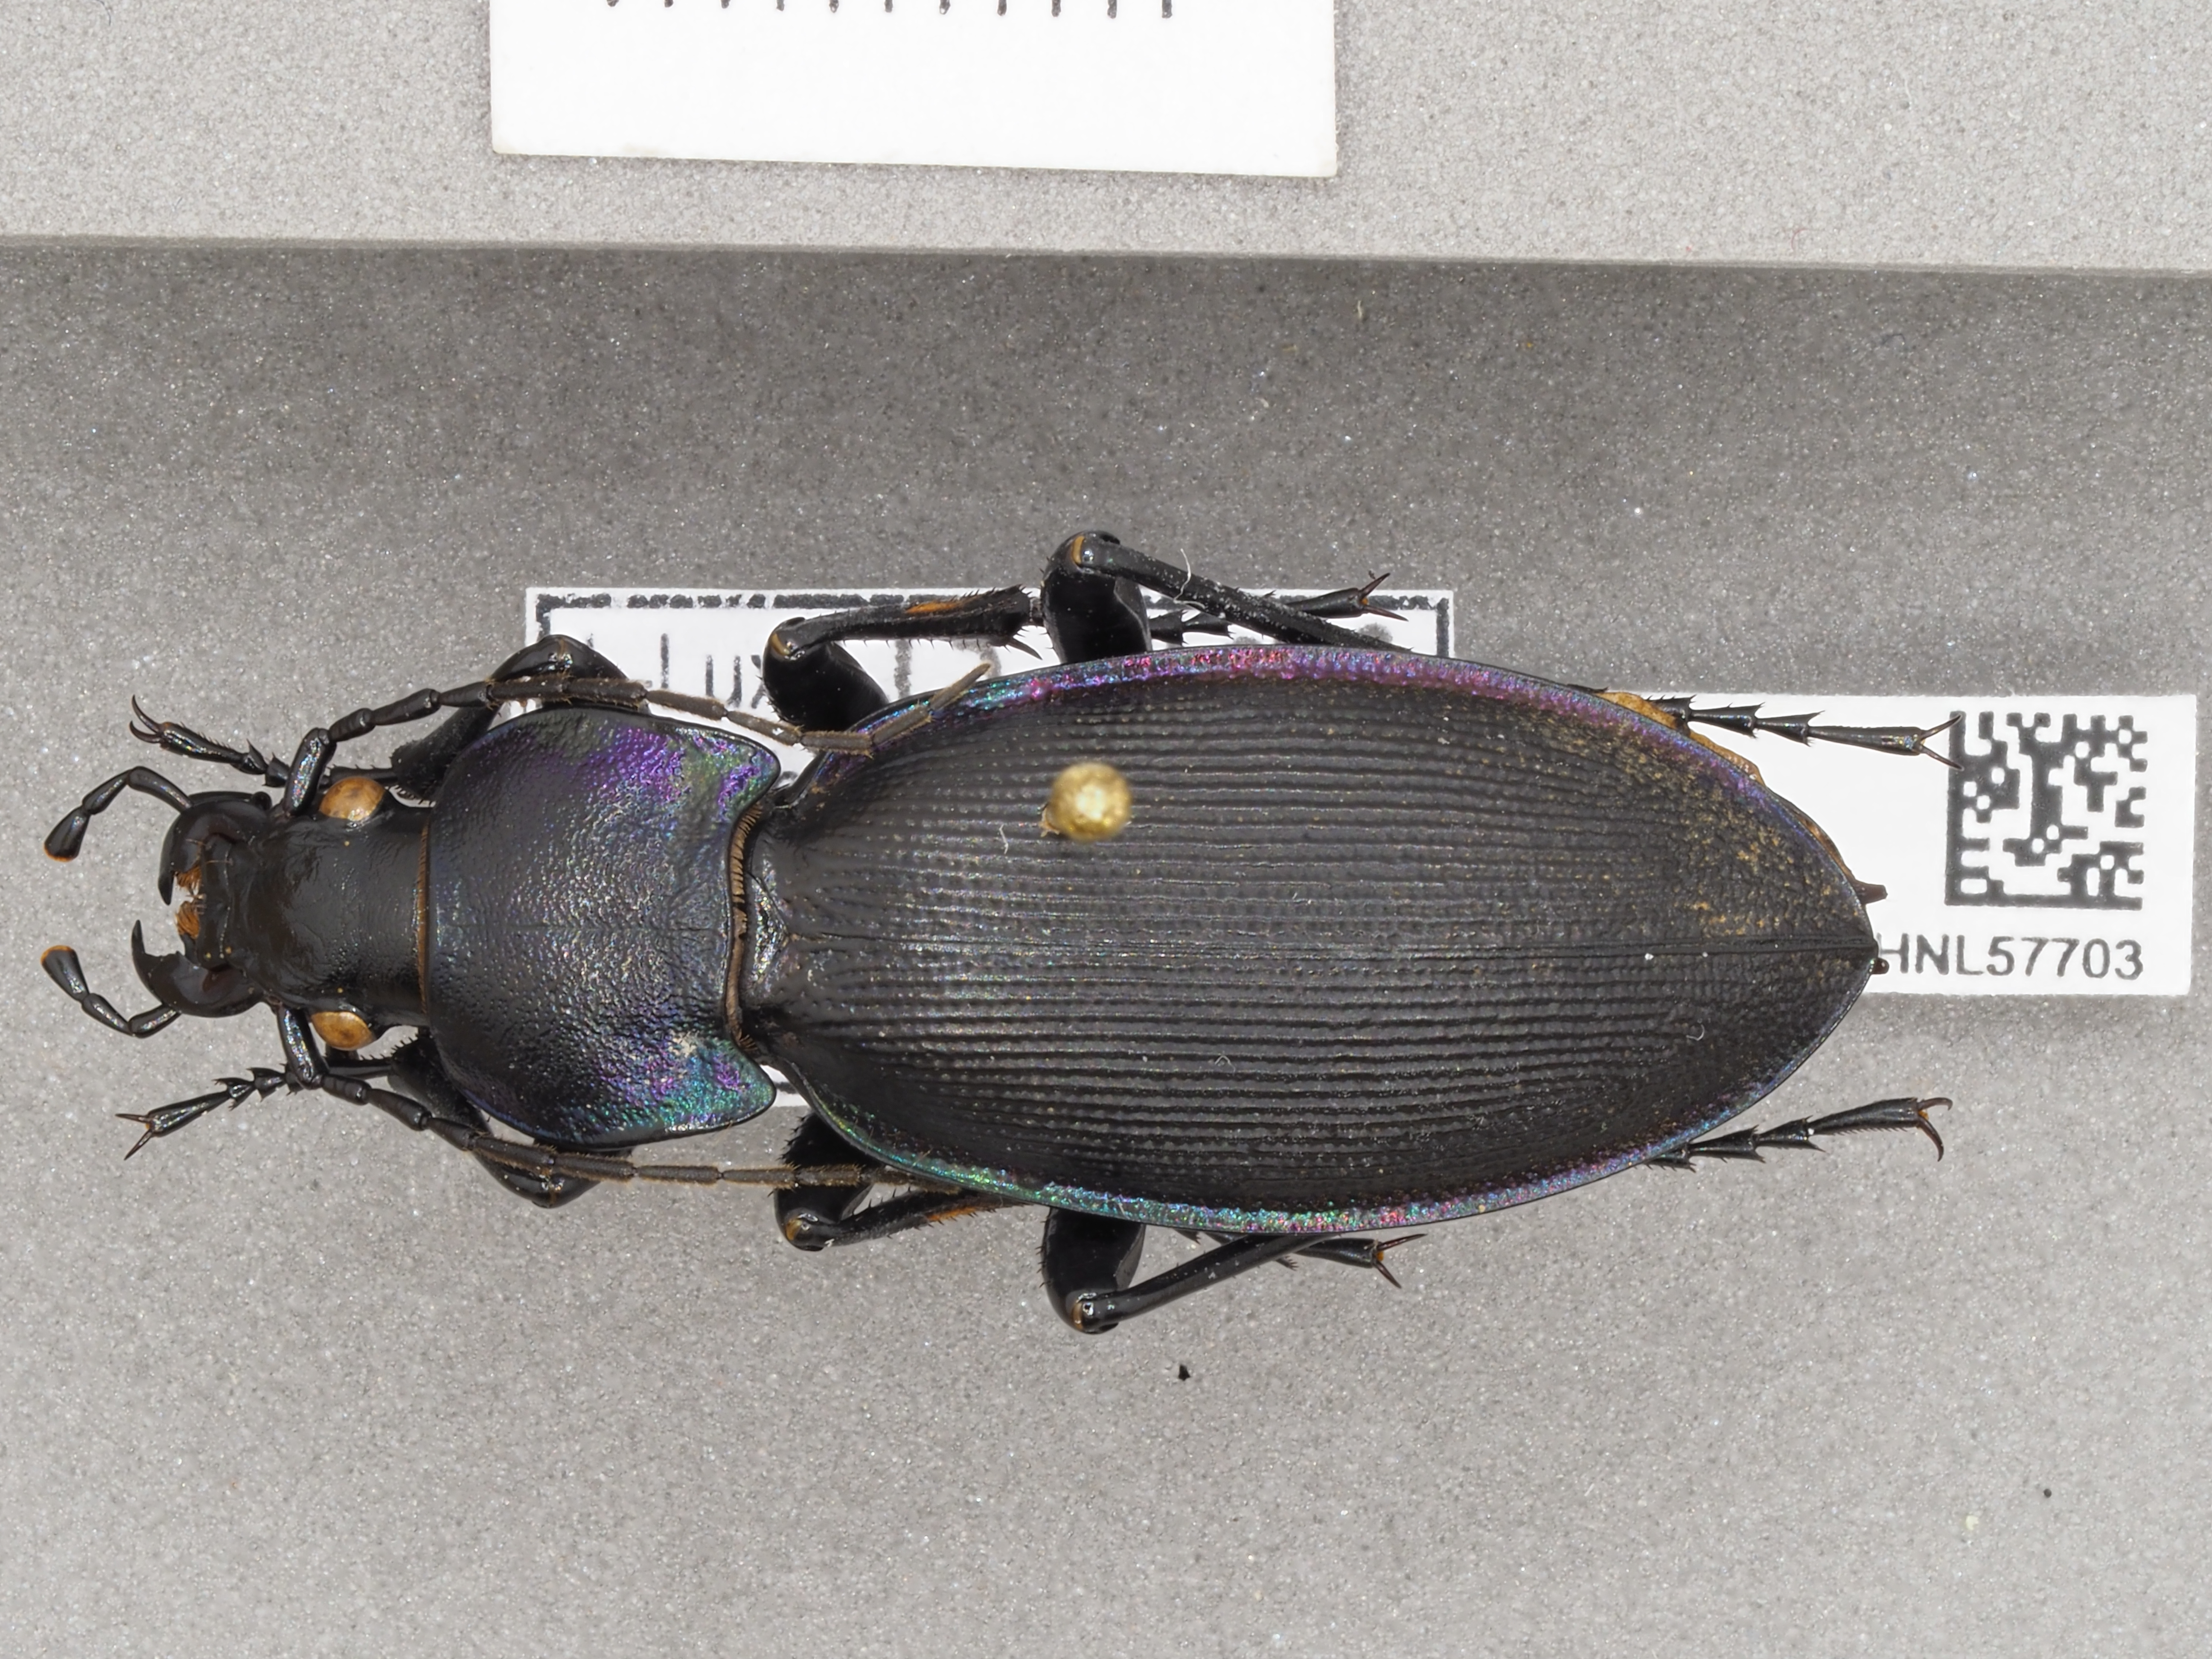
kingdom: Animalia
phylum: Arthropoda
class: Insecta
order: Coleoptera
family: Carabidae
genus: Carabus
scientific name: Carabus purpurascens
